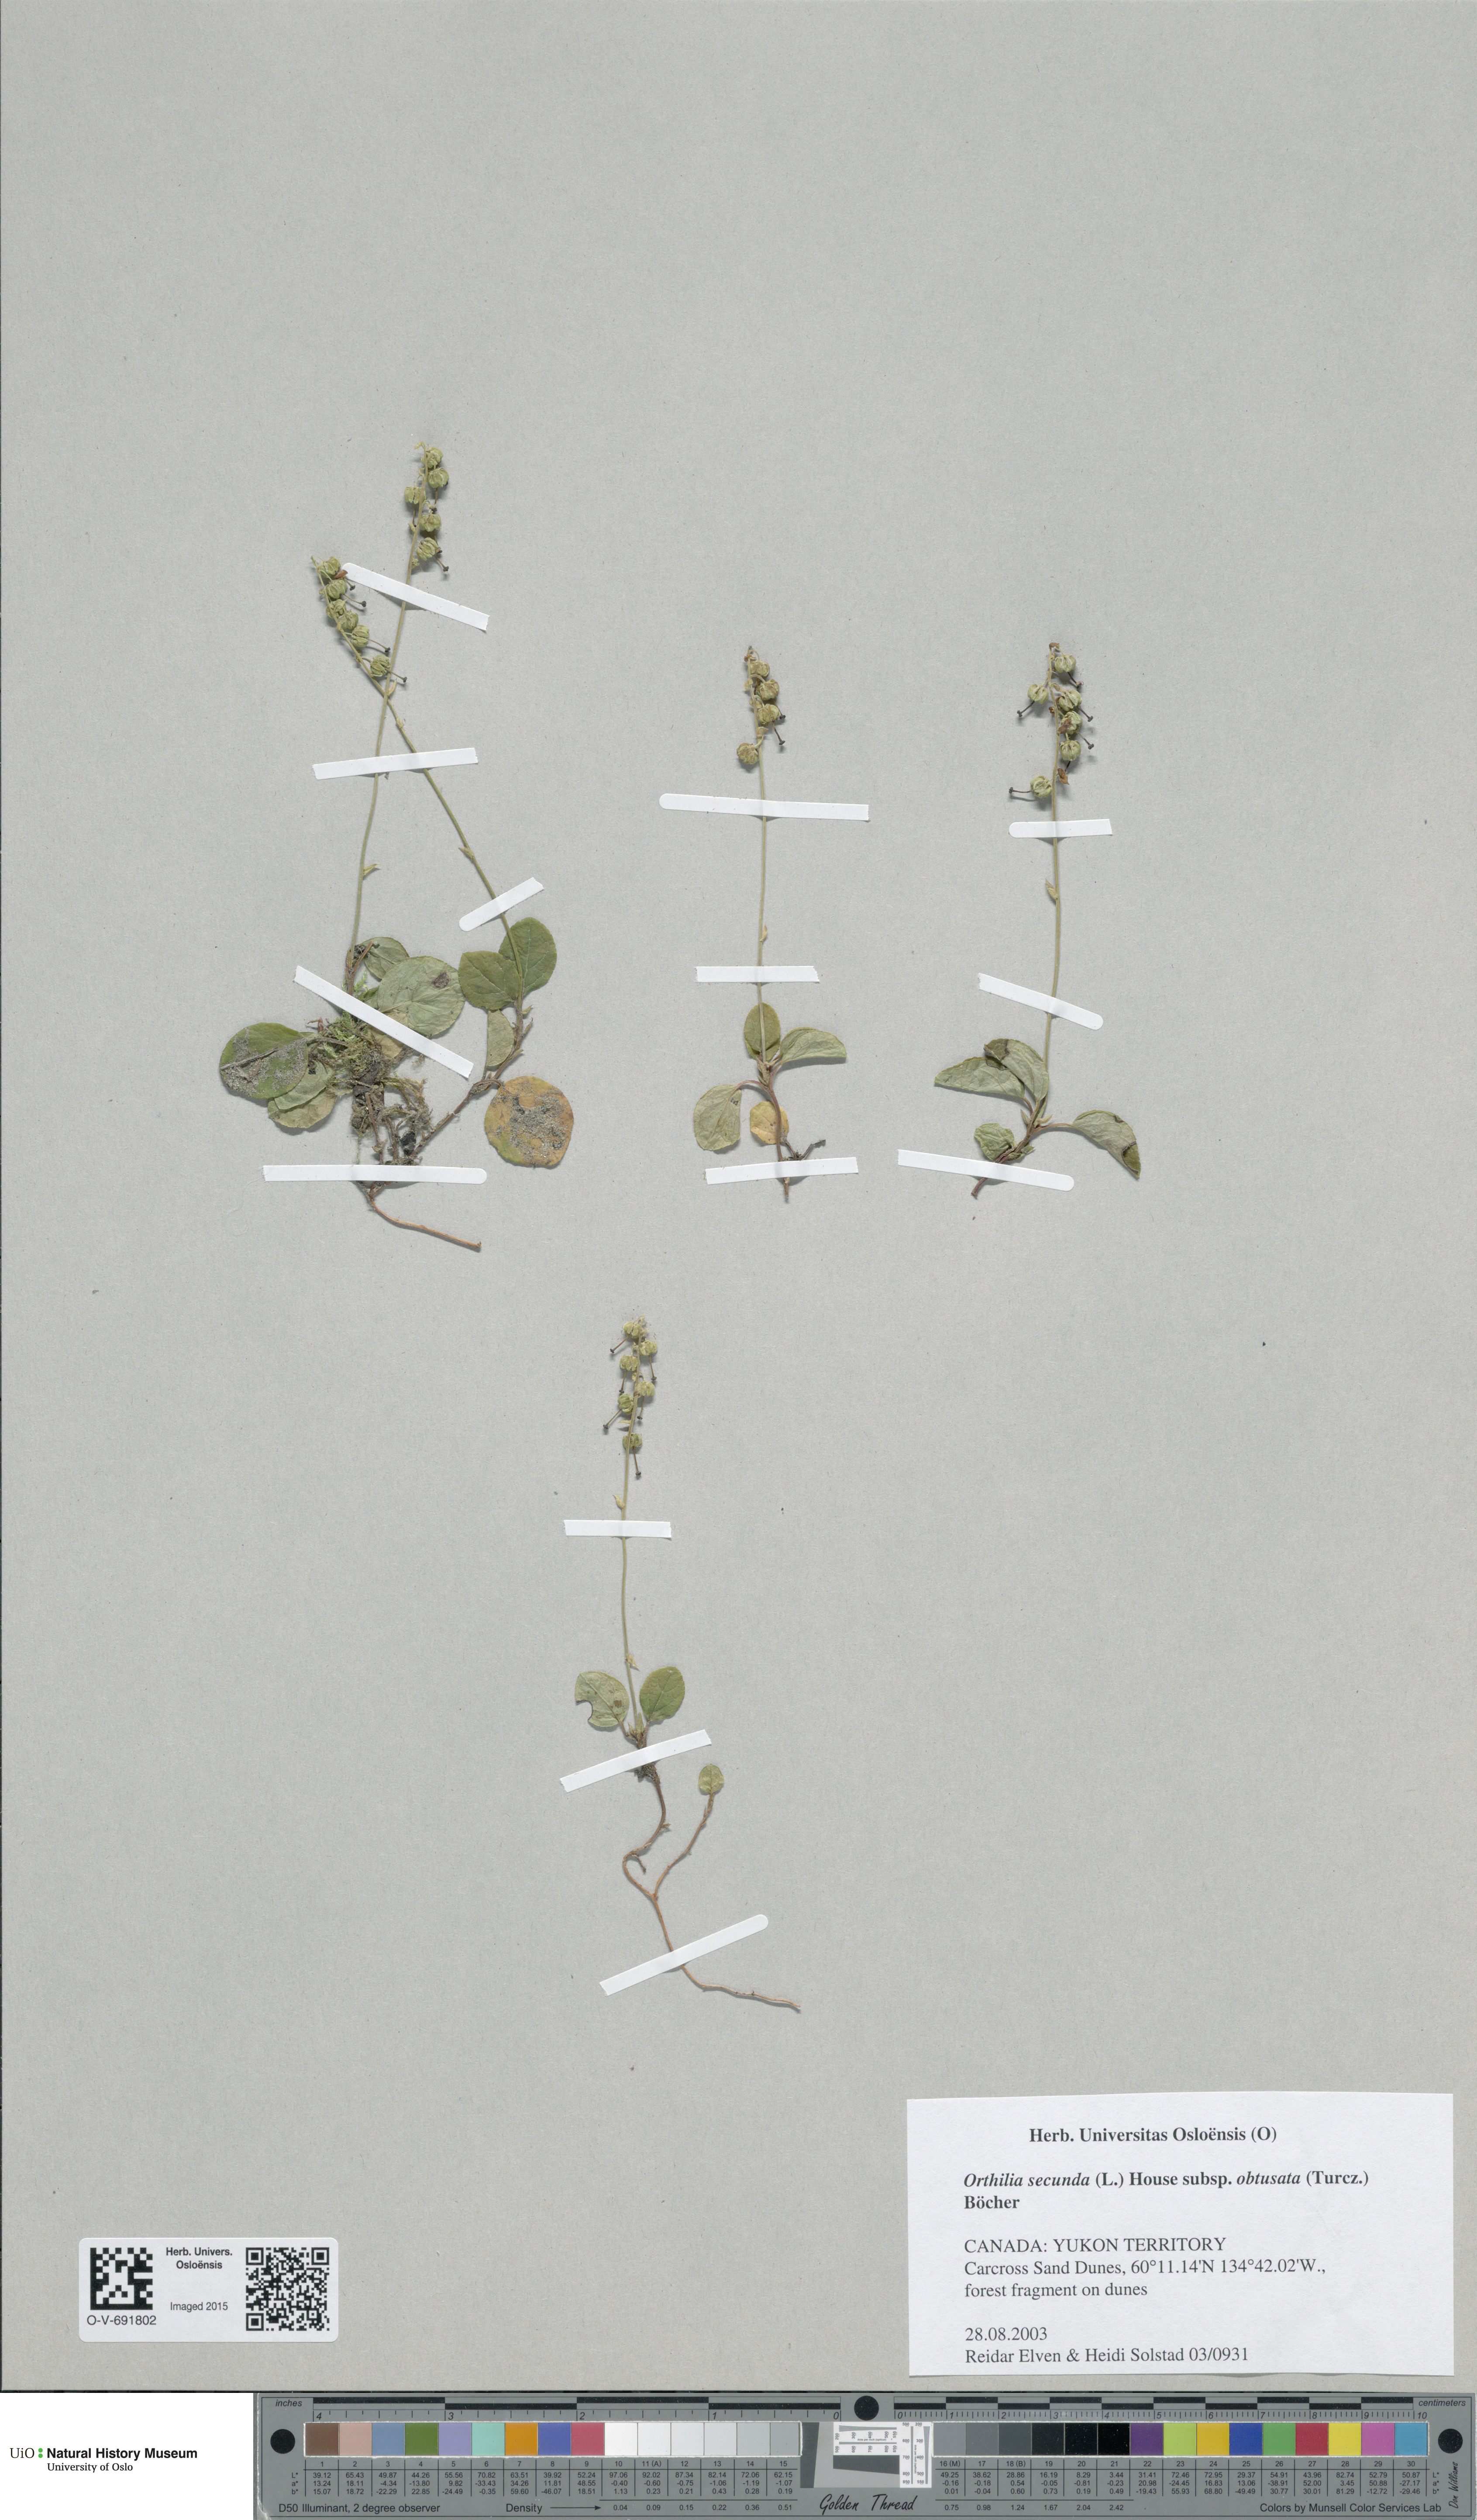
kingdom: Plantae
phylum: Tracheophyta
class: Magnoliopsida
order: Ericales
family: Ericaceae
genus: Orthilia
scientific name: Orthilia secunda
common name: One-sided orthilia
